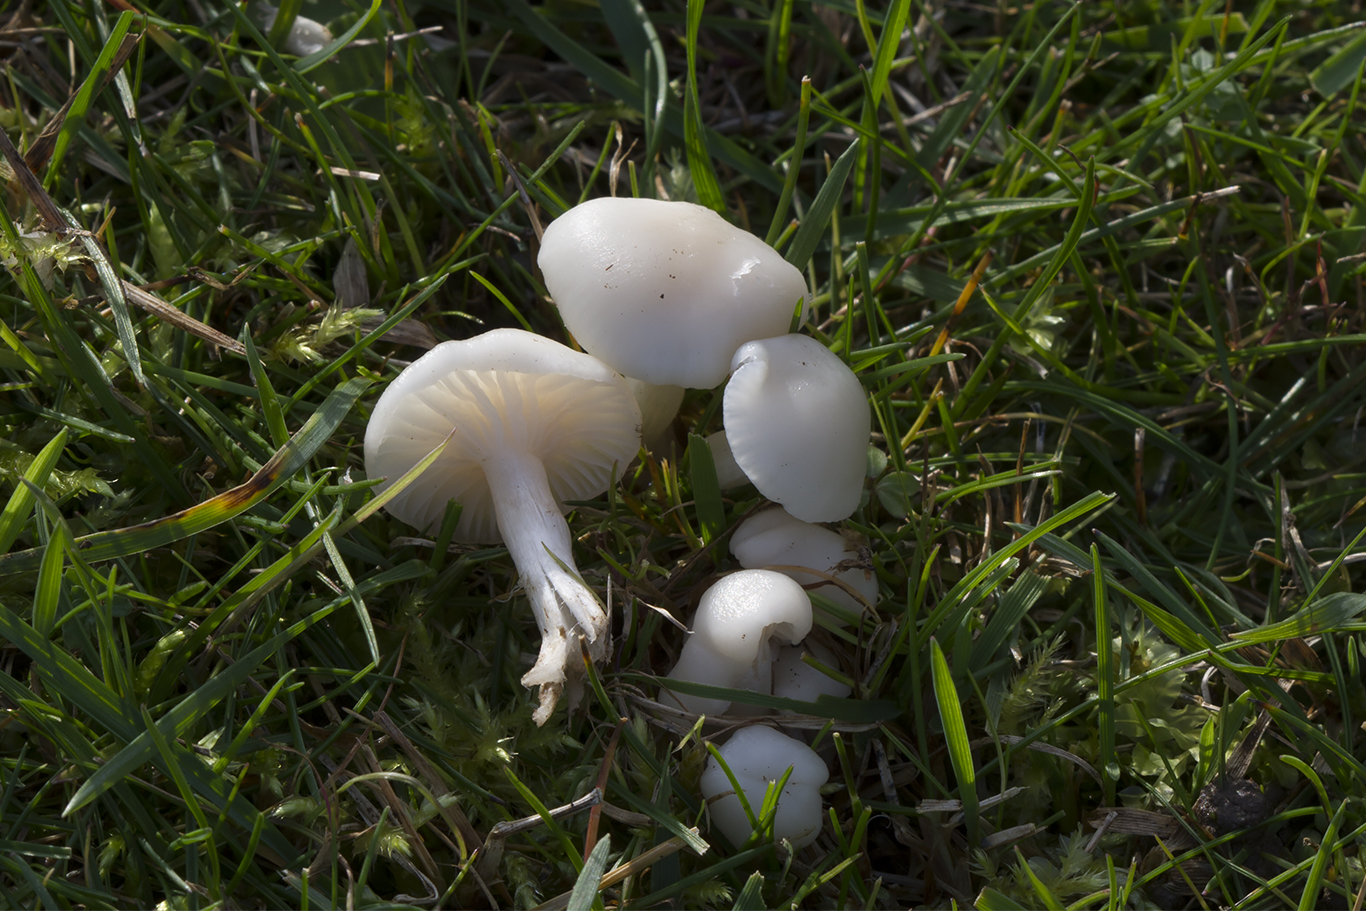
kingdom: Fungi
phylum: Basidiomycota
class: Agaricomycetes
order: Agaricales
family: Hygrophoraceae
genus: Cuphophyllus
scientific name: Cuphophyllus virgineus
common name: snehvid vokshat
